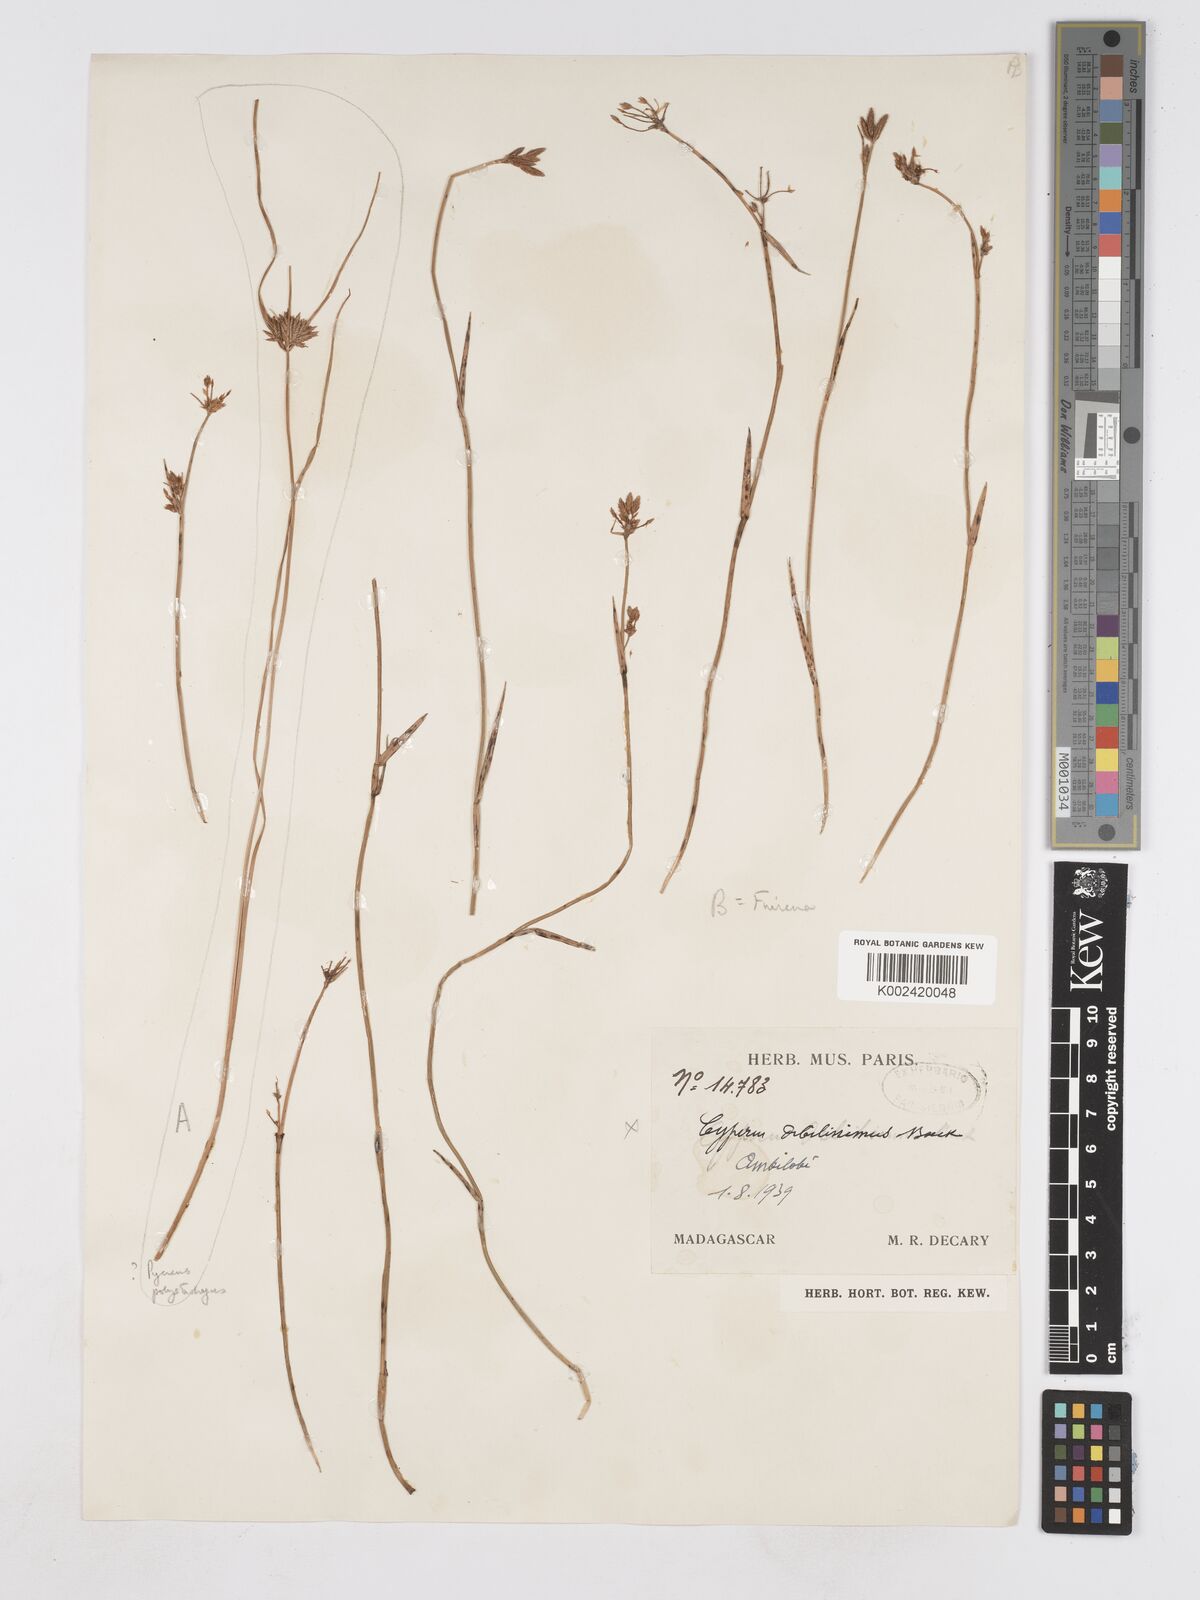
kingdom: Plantae
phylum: Tracheophyta
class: Liliopsida
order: Poales
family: Cyperaceae
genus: Fuirena
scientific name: Fuirena stricta
